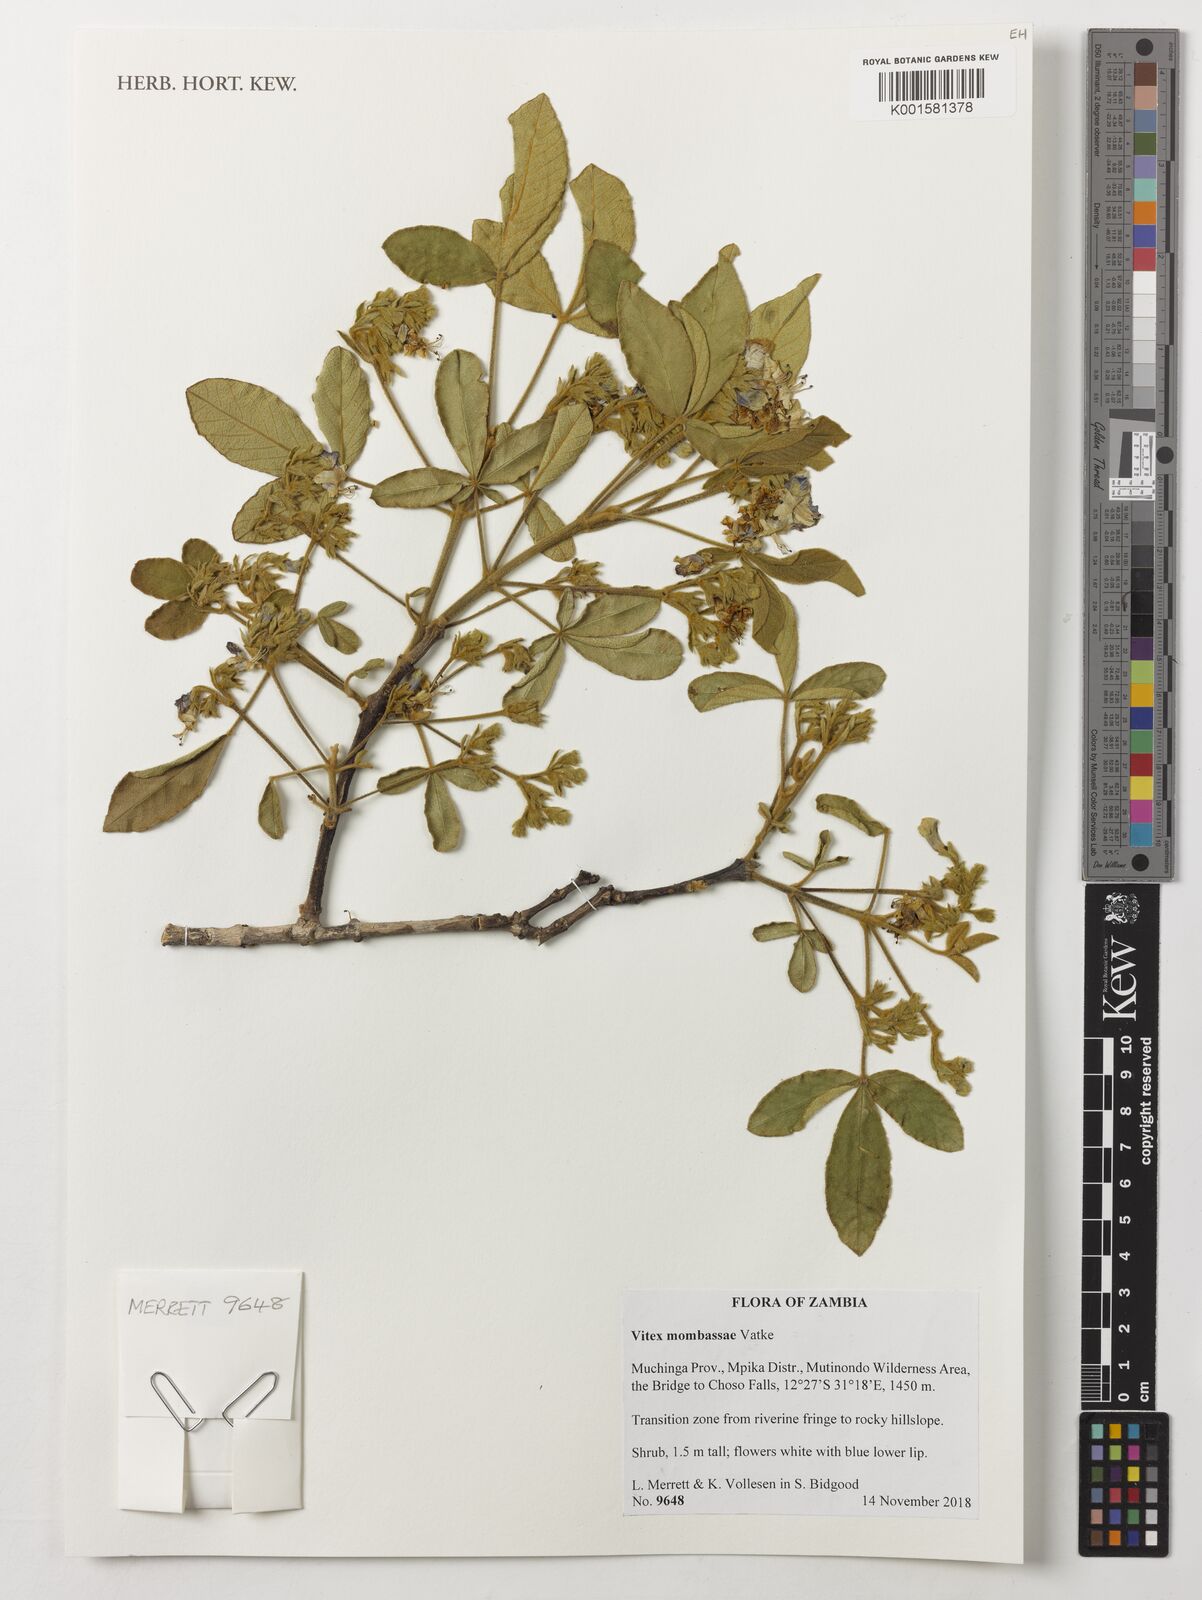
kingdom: Plantae
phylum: Tracheophyta
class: Magnoliopsida
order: Lamiales
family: Lamiaceae
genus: Vitex
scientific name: Vitex mombassae
